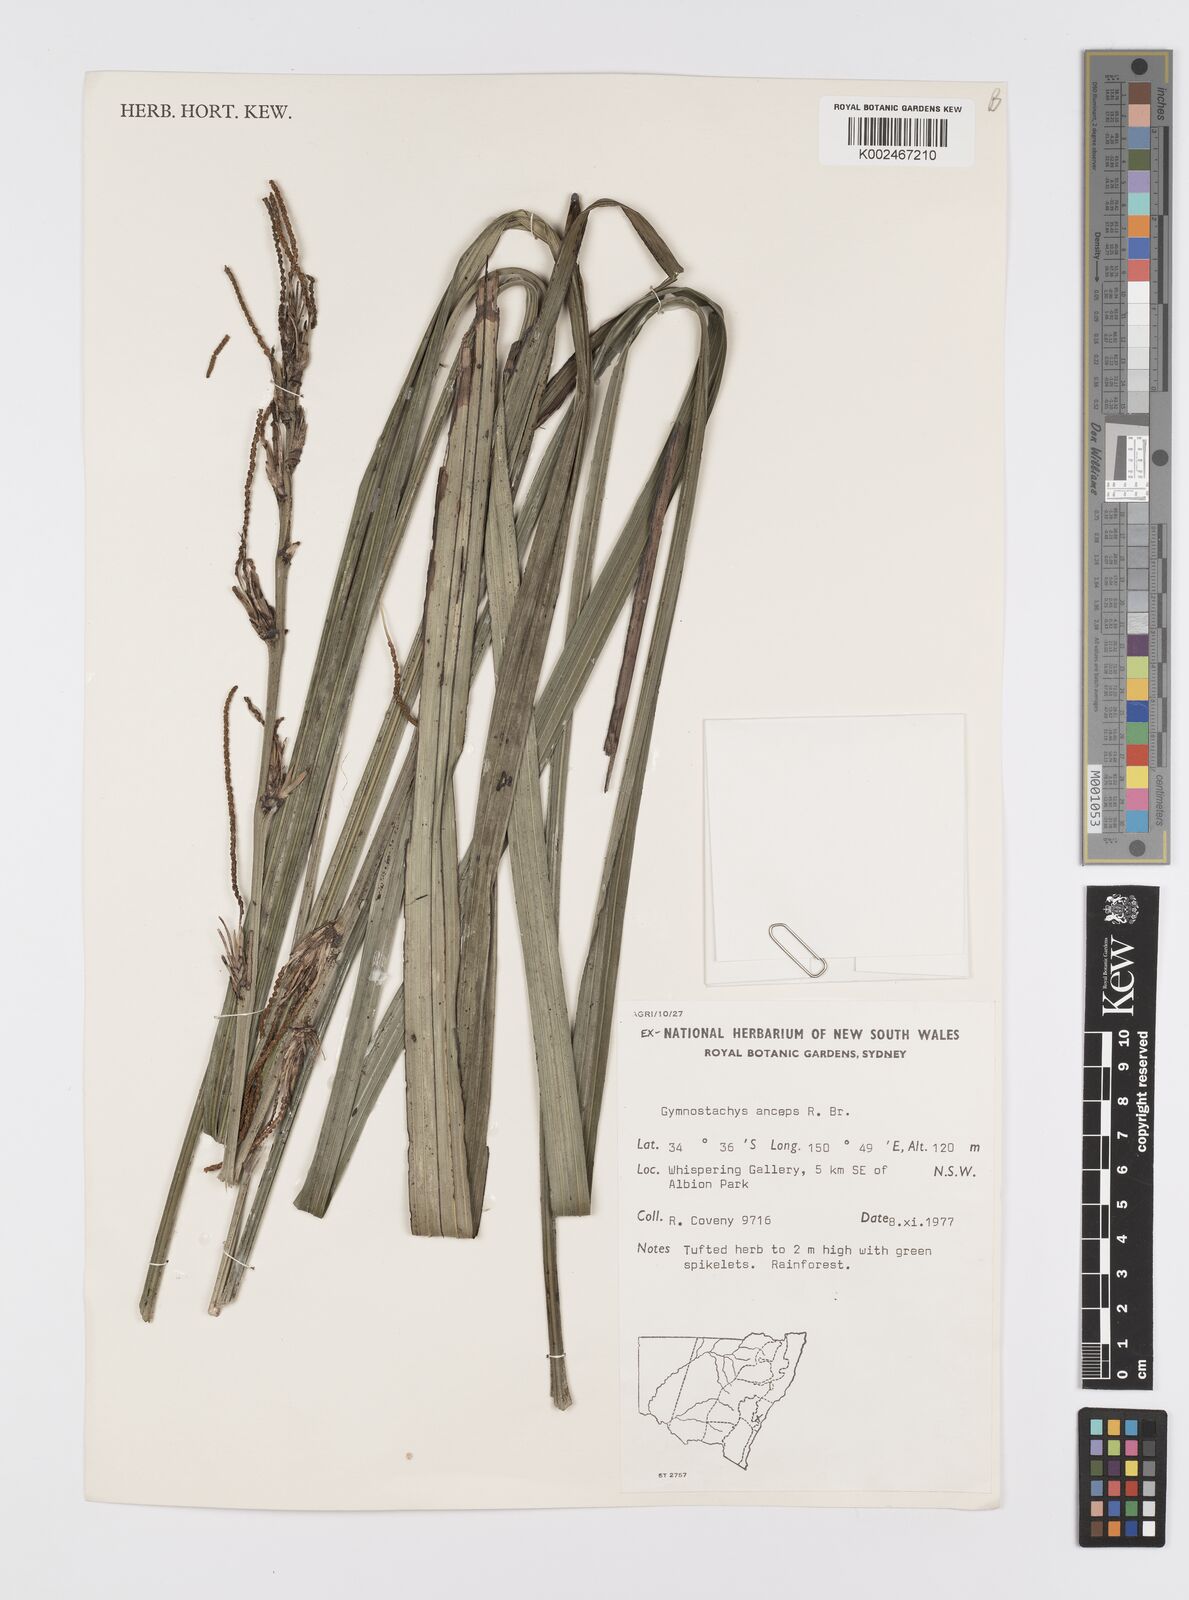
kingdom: Plantae
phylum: Tracheophyta
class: Liliopsida
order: Alismatales
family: Araceae
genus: Gymnostachys
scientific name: Gymnostachys anceps
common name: Settler's-flax
